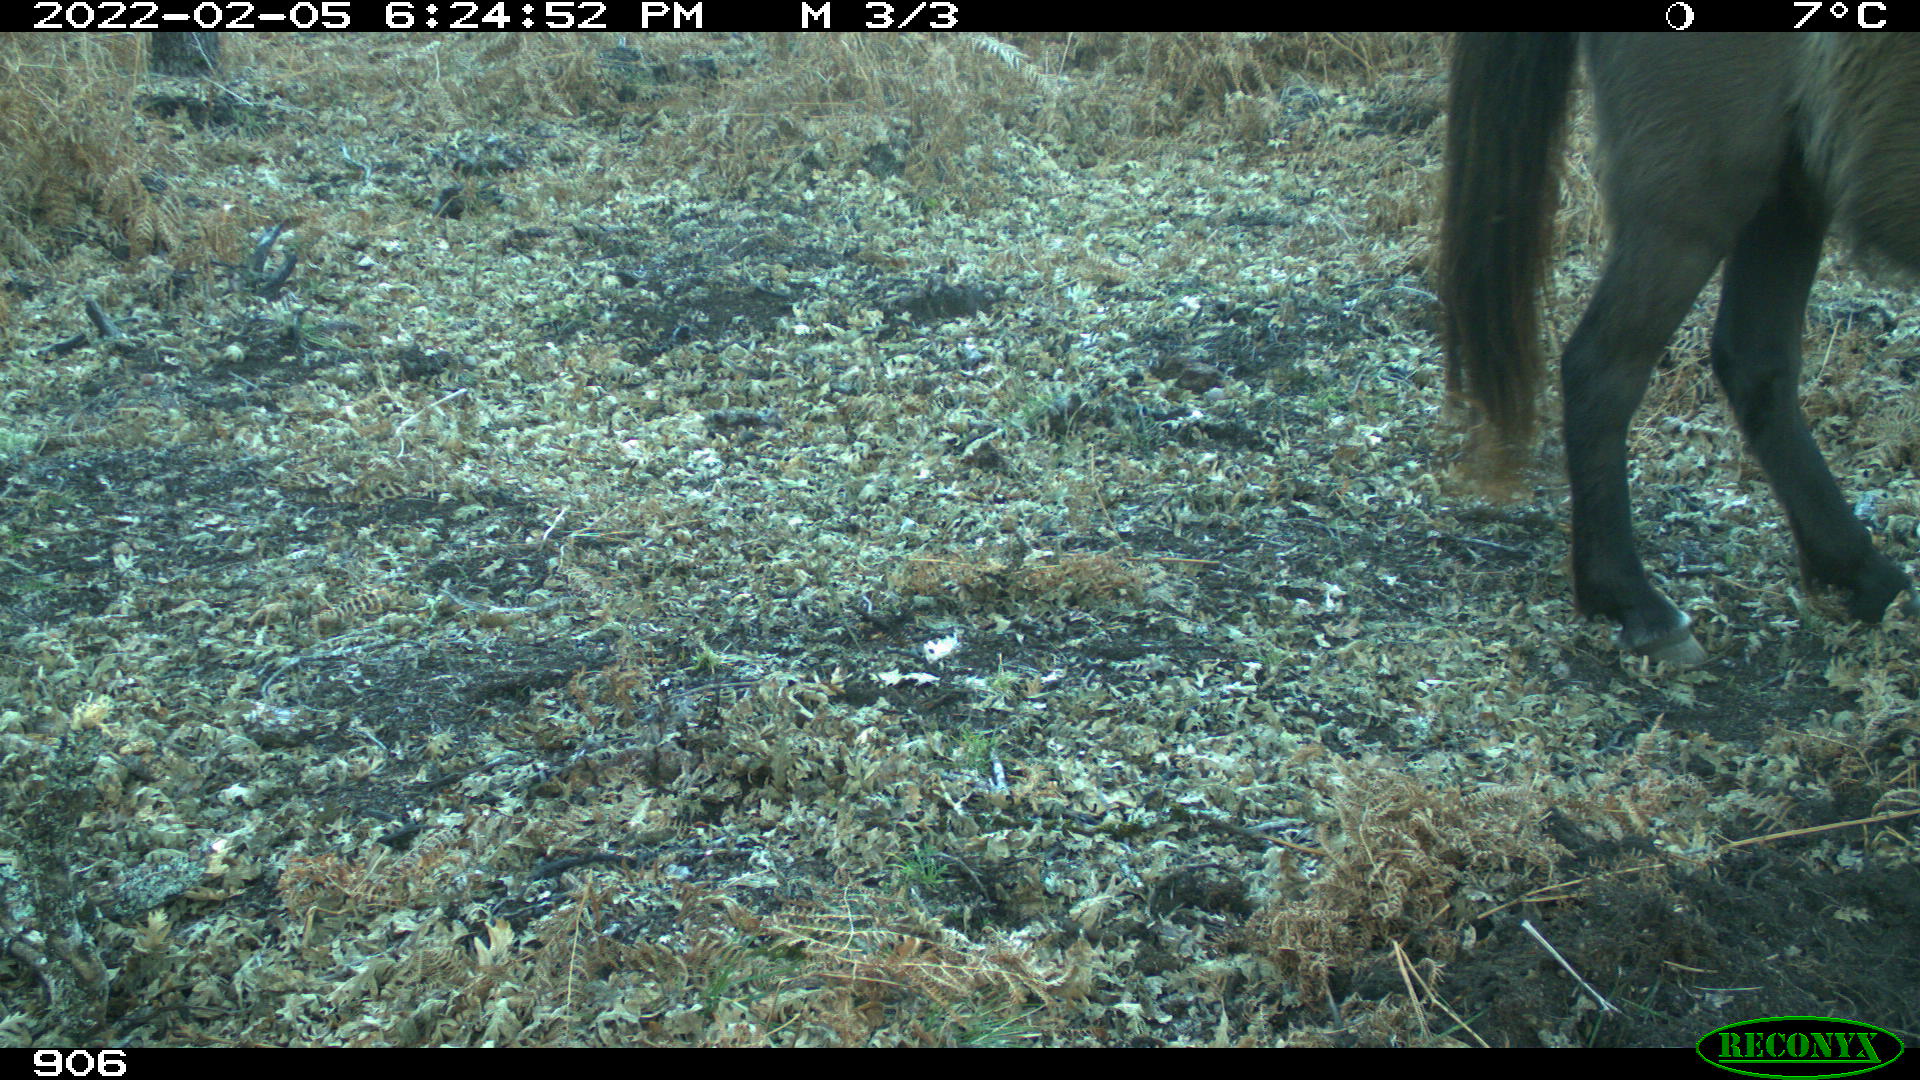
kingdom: Animalia
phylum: Chordata
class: Mammalia
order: Perissodactyla
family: Equidae
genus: Equus
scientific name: Equus caballus
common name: Horse
